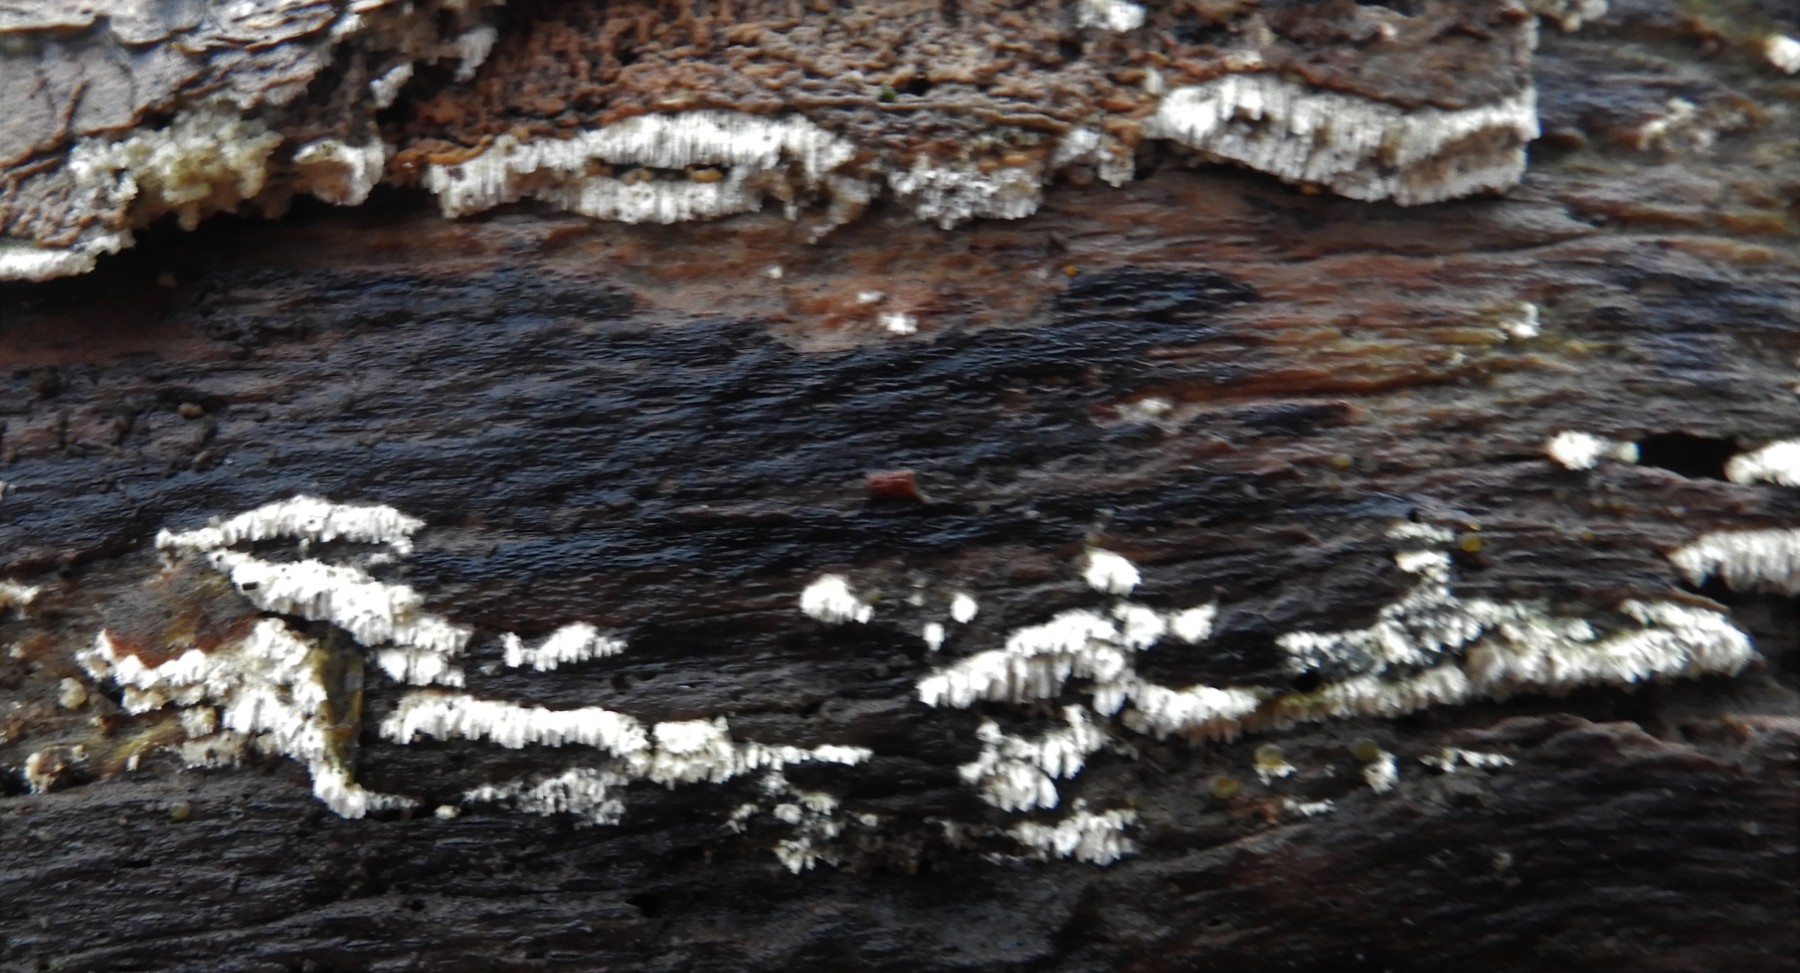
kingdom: Fungi
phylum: Basidiomycota
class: Agaricomycetes
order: Hymenochaetales
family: Schizoporaceae
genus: Schizopora
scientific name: Schizopora paradoxa
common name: hvid tandsvamp
